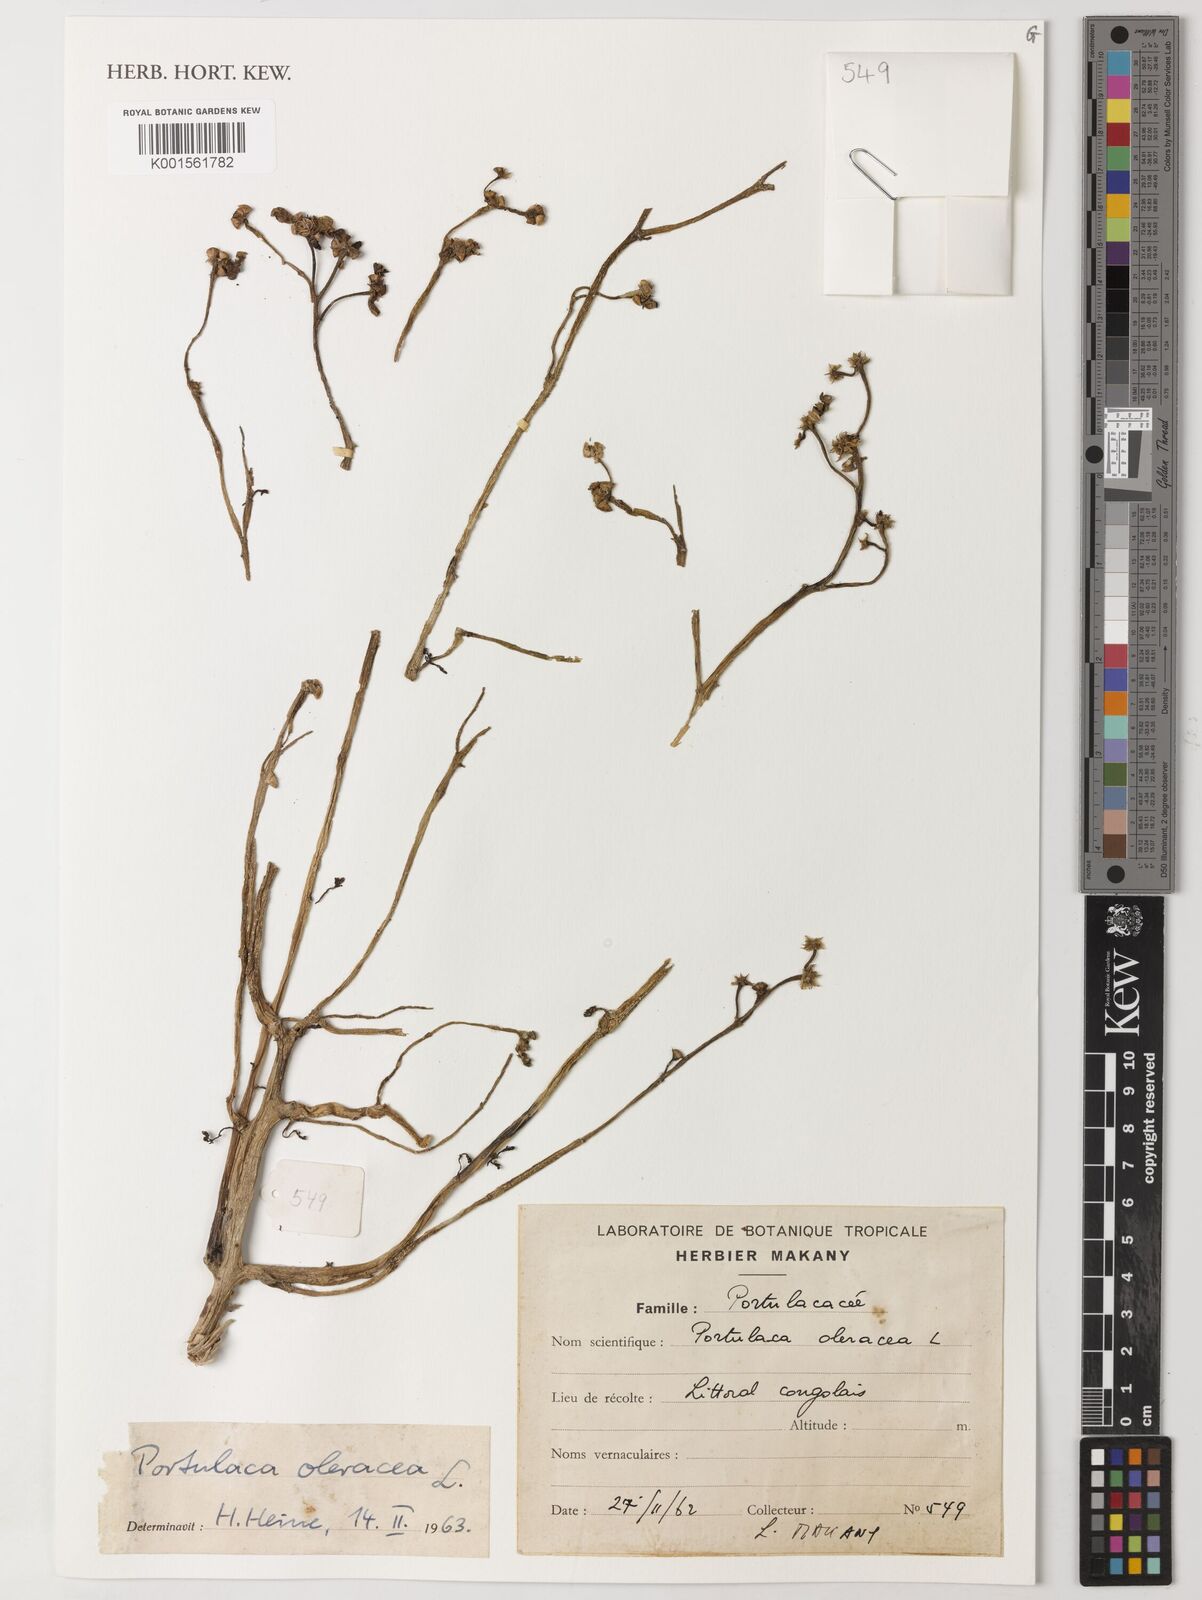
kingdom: Plantae
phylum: Tracheophyta
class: Magnoliopsida
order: Caryophyllales
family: Portulacaceae
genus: Portulaca
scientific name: Portulaca oleracea
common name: Common purslane
